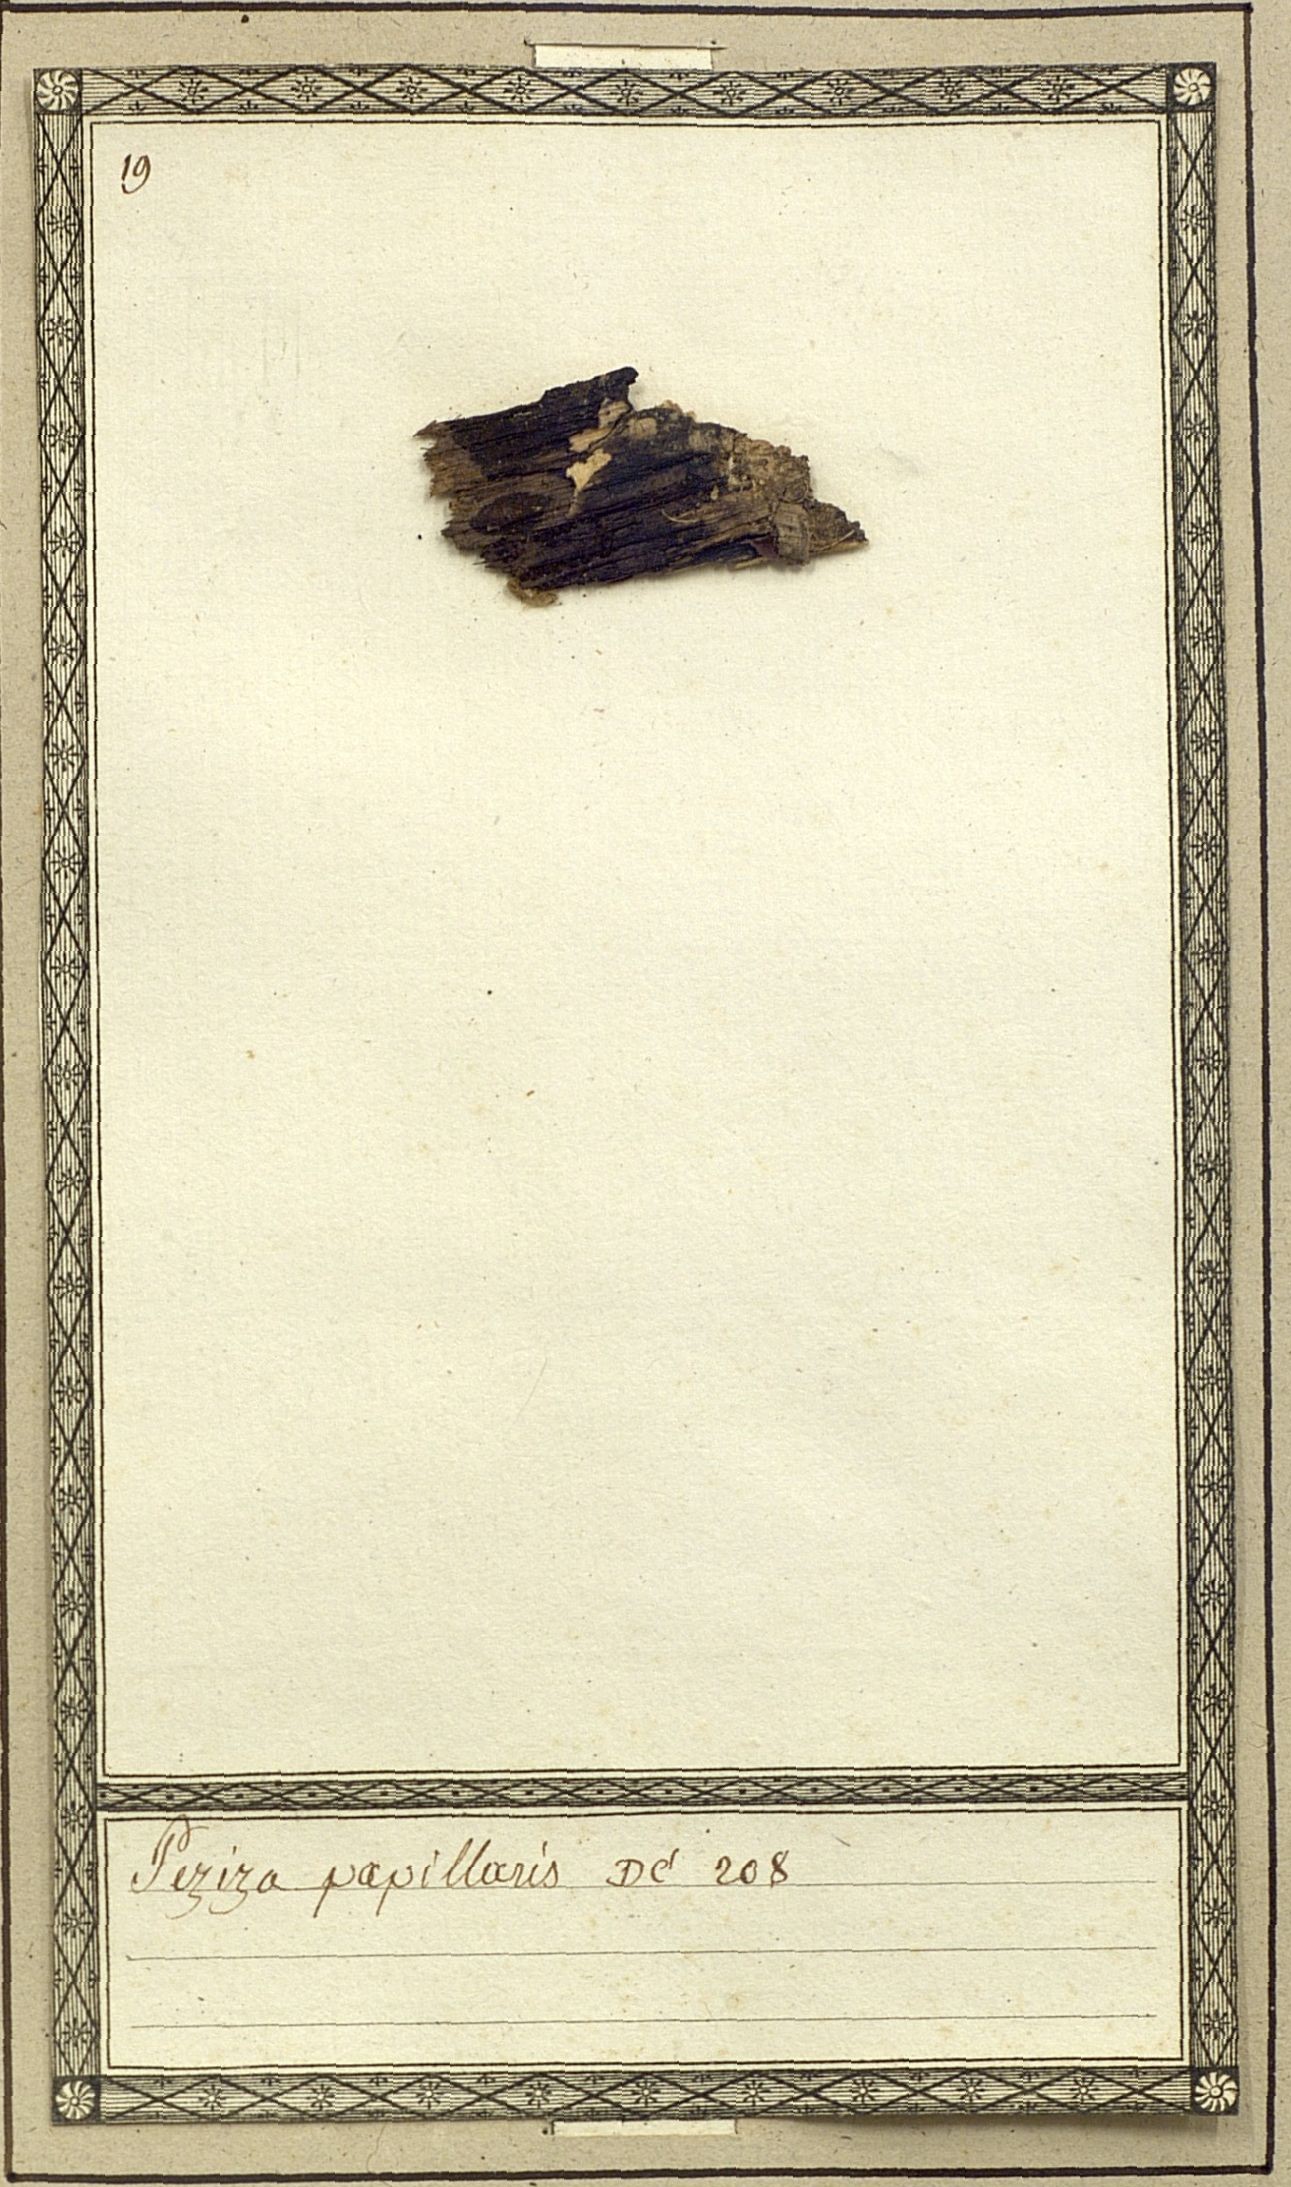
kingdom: Fungi
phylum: Ascomycota
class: Leotiomycetes
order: Helotiales
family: Hyaloscyphaceae
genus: Urceolella
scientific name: Urceolella papillaris
